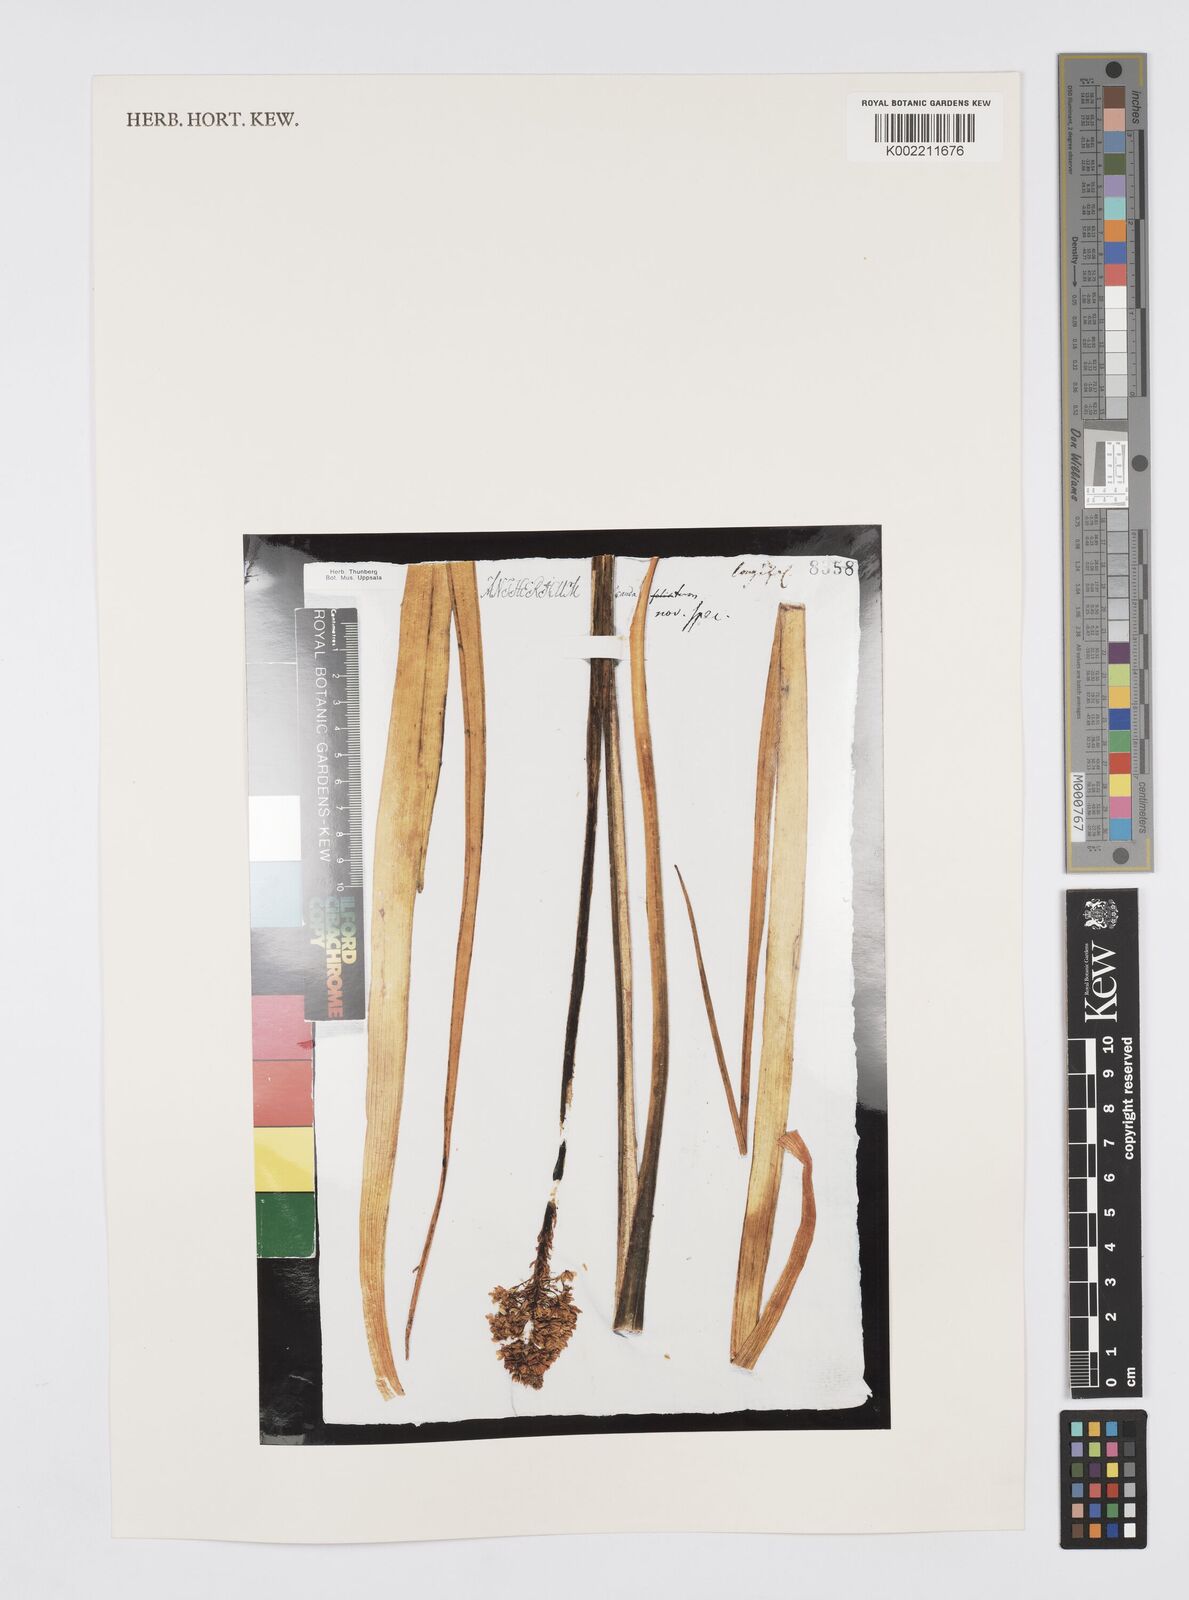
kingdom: Plantae
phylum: Tracheophyta
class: Liliopsida
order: Asparagales
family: Asphodelaceae
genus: Bulbinella
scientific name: Bulbinella cauda-felis
